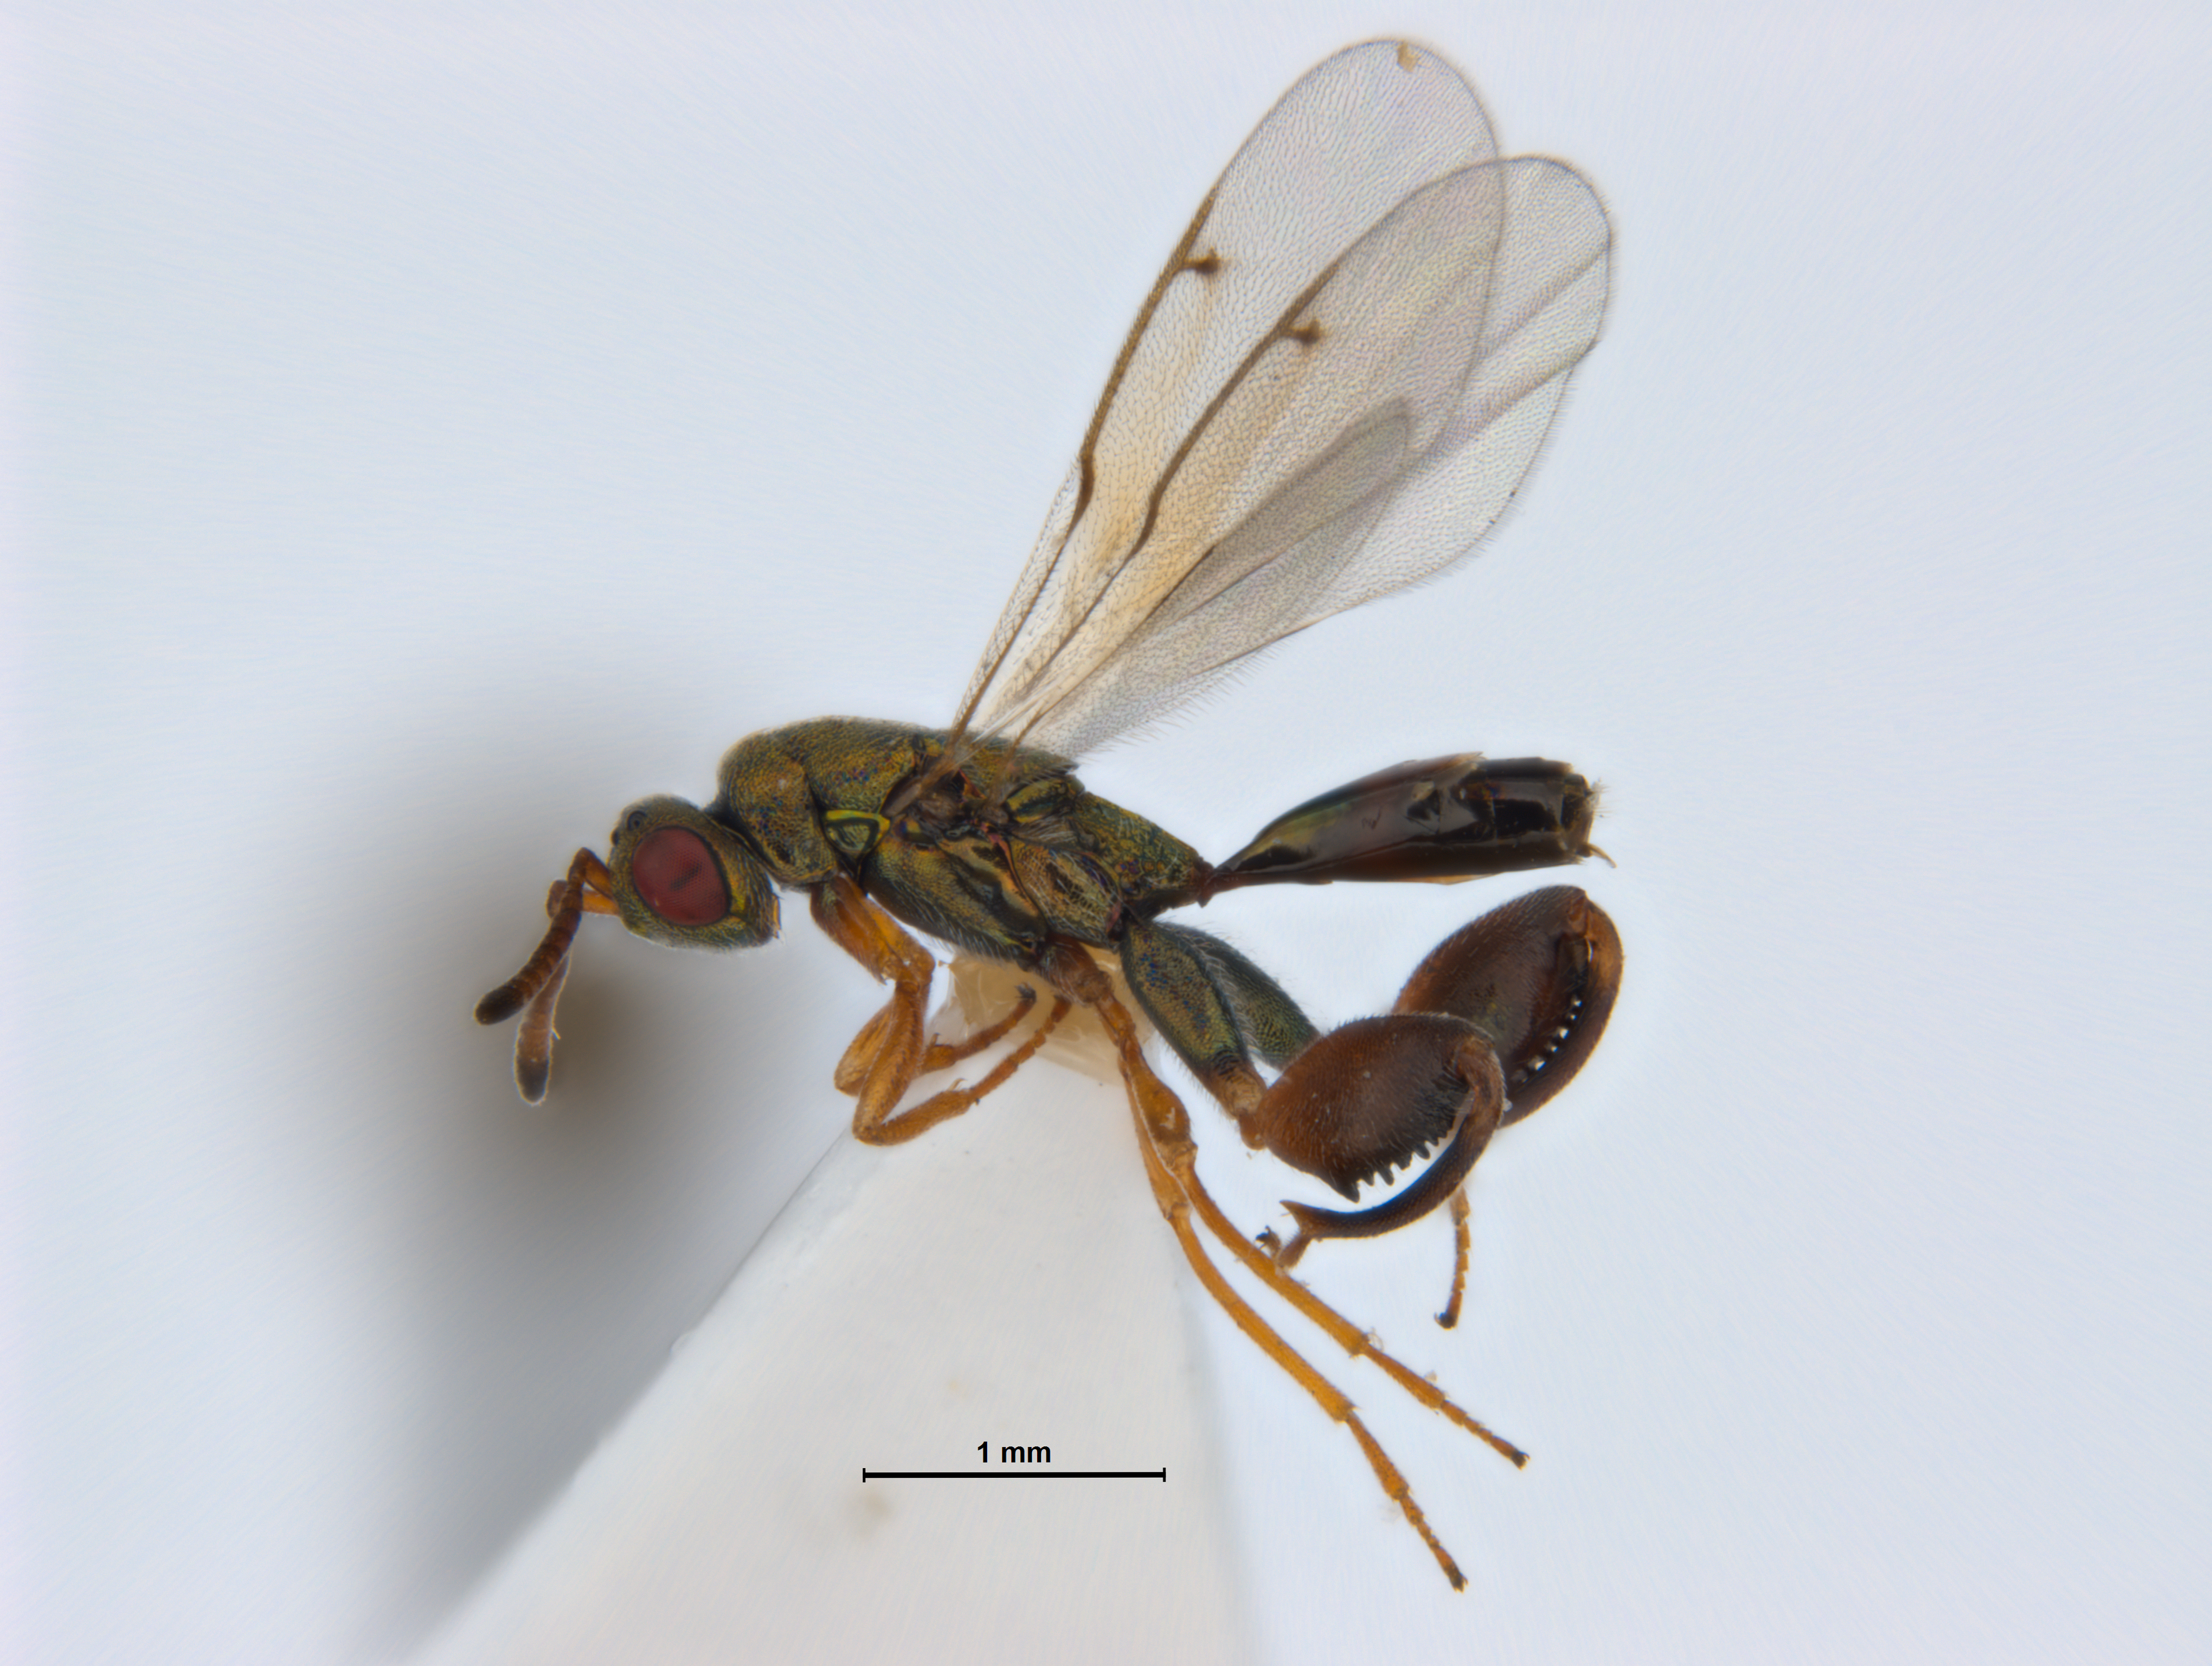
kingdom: Animalia
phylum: Arthropoda
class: Insecta
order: Hymenoptera
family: Torymidae
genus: Palmon
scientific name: Palmon
